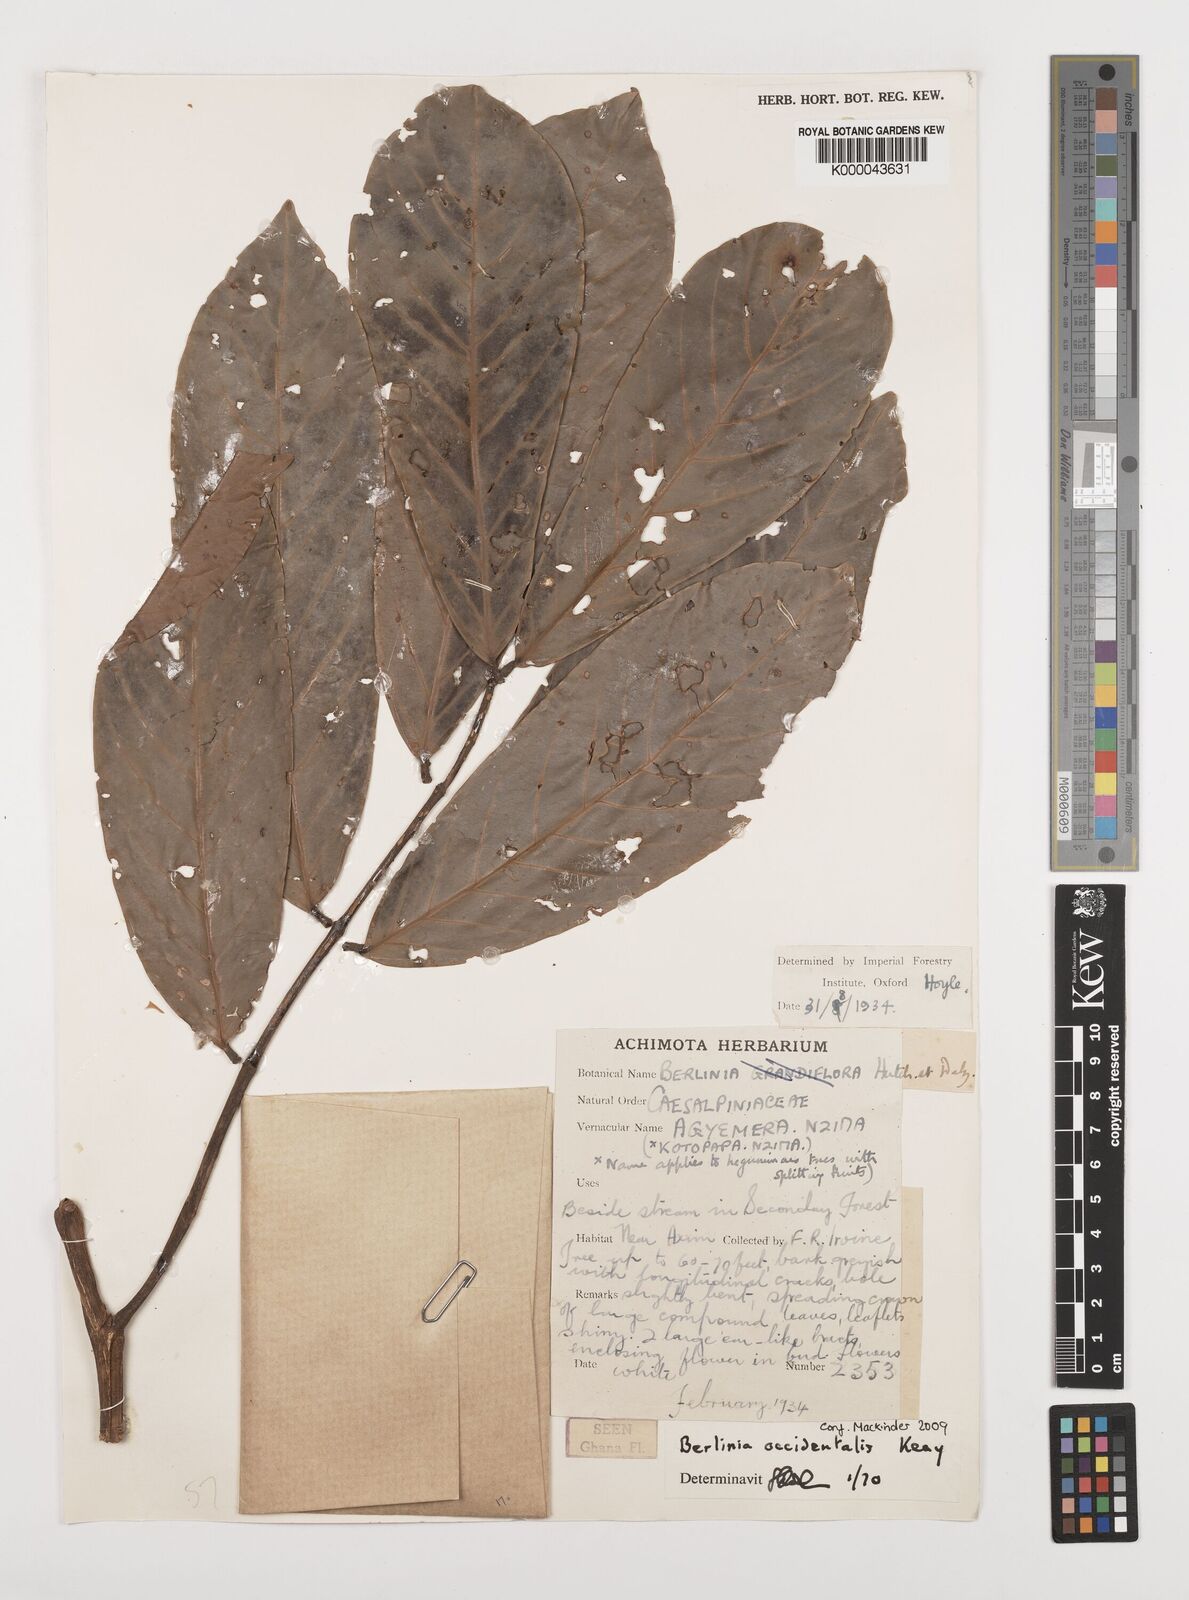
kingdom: Plantae
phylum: Tracheophyta
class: Magnoliopsida
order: Fabales
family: Fabaceae
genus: Berlinia
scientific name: Berlinia occidentalis
